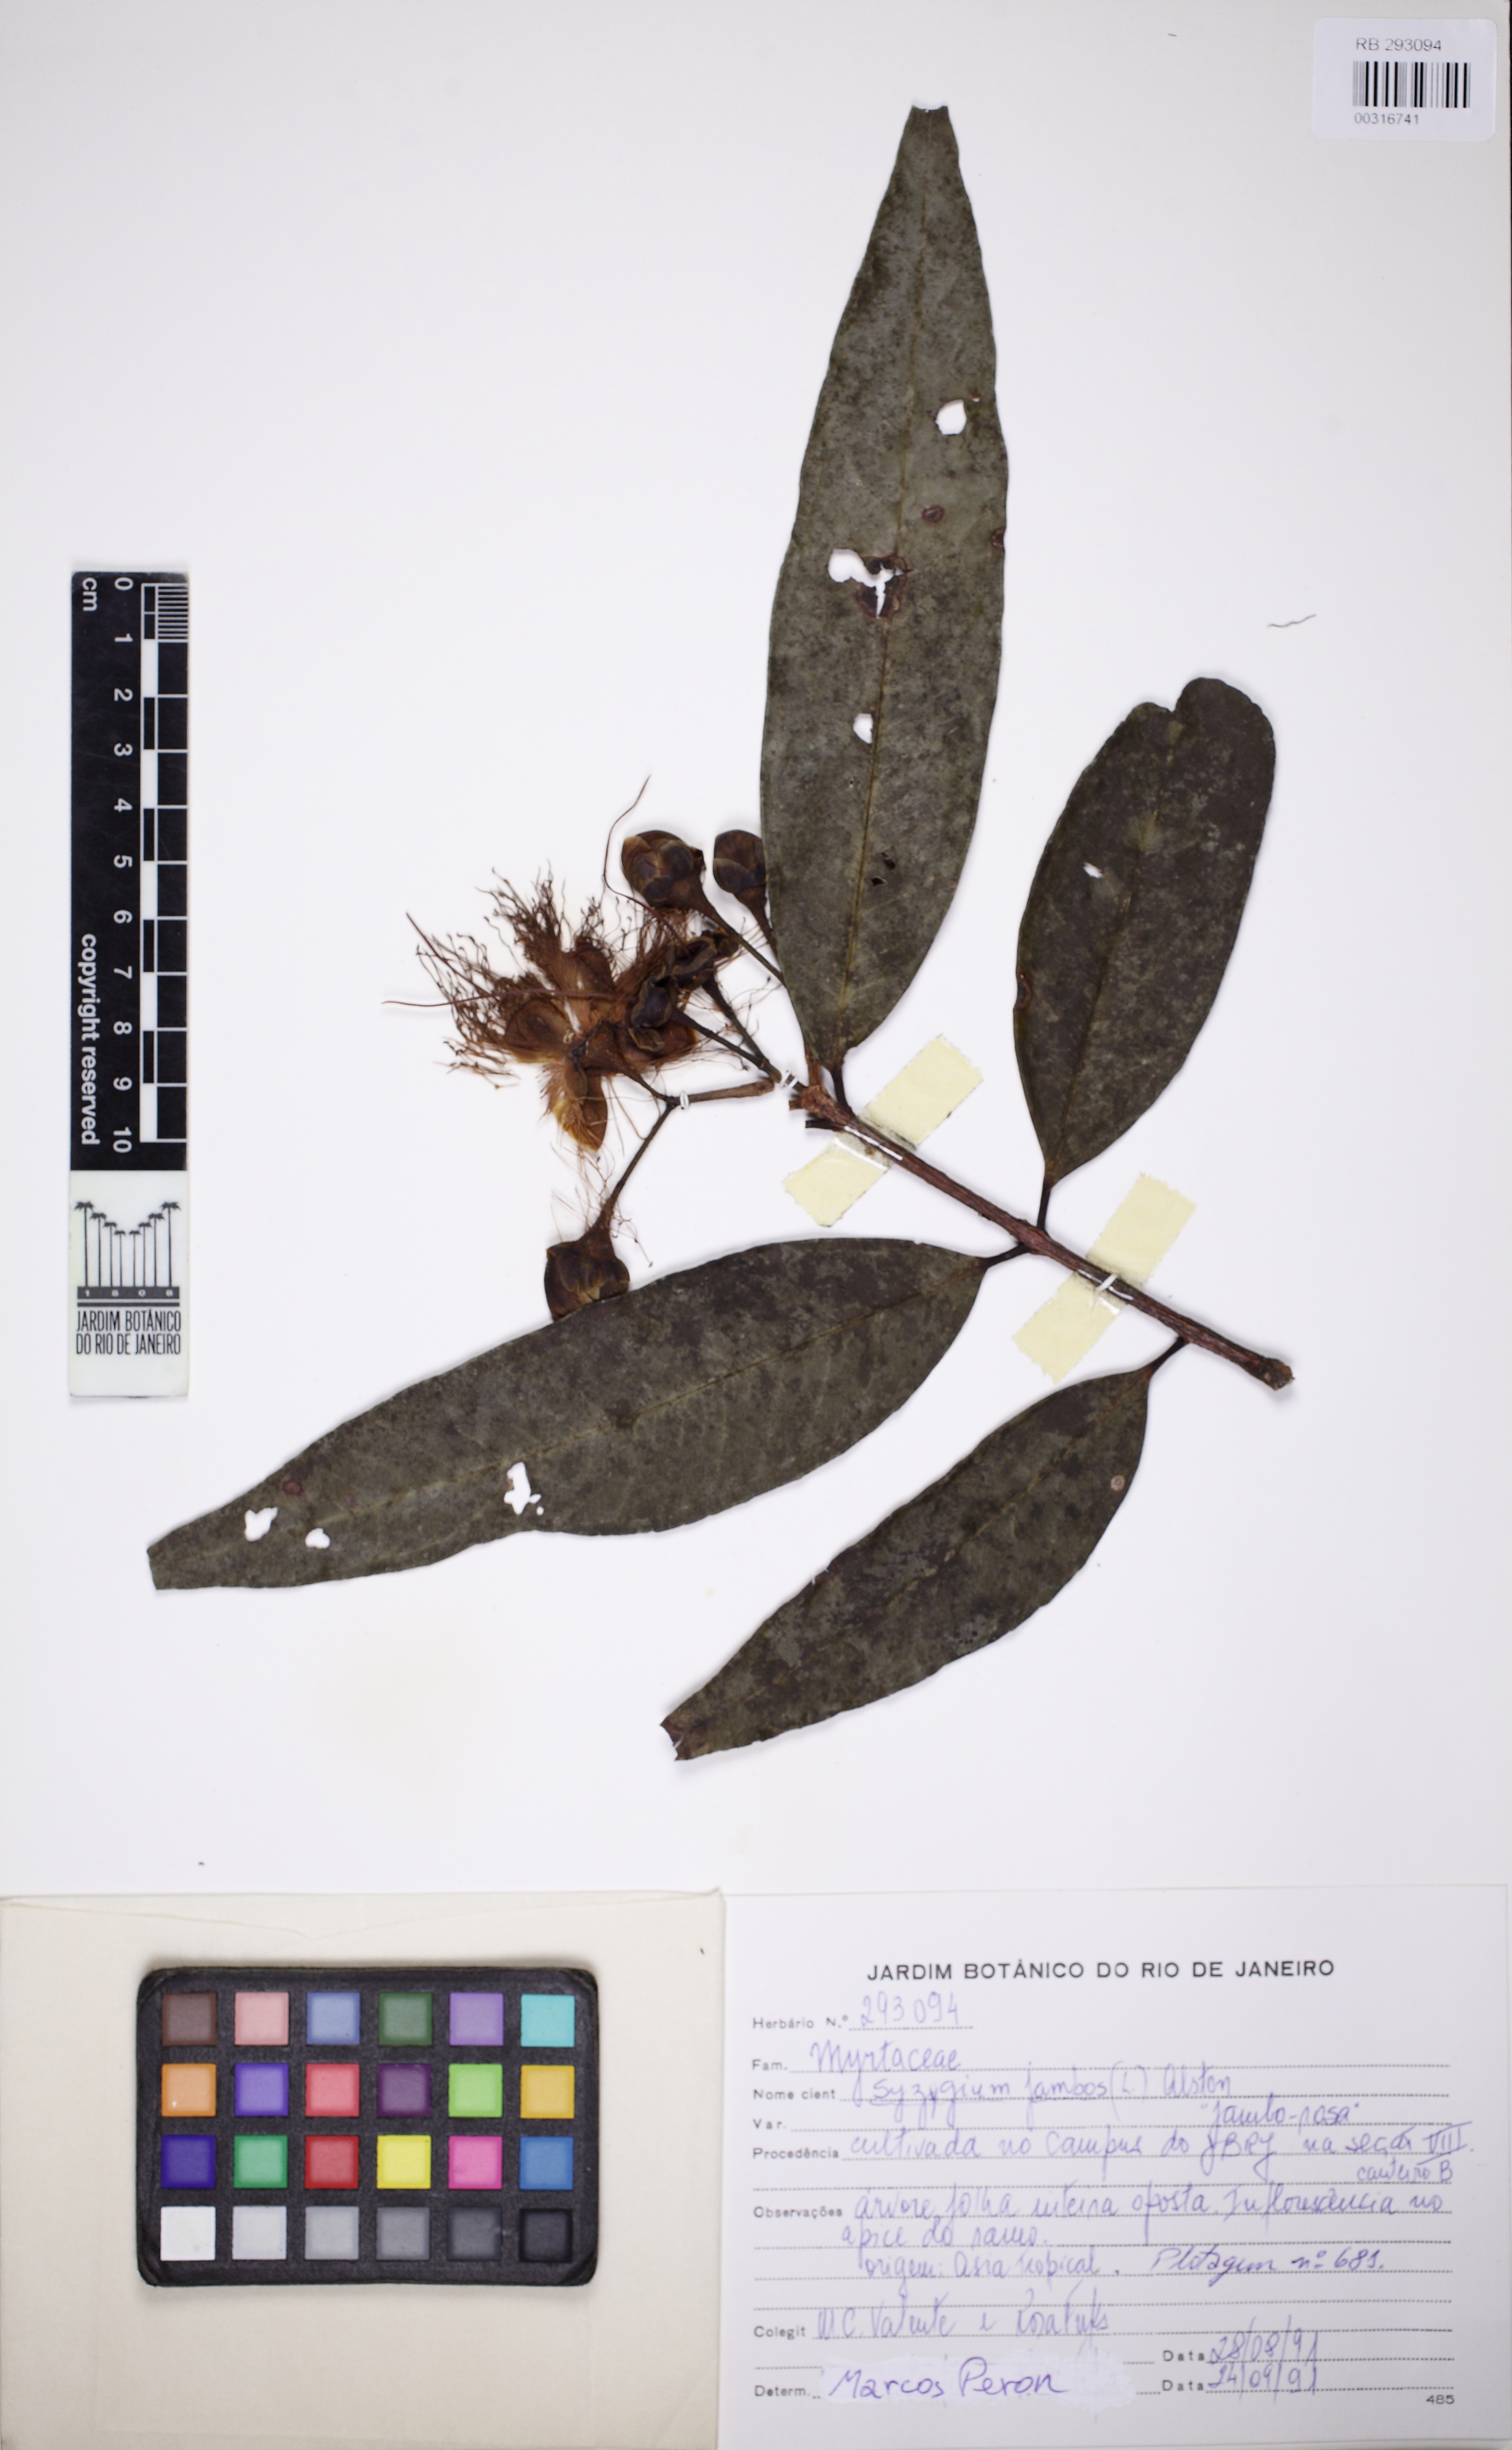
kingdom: Plantae
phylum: Tracheophyta
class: Magnoliopsida
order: Myrtales
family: Myrtaceae
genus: Syzygium
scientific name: Syzygium jambos
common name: Malabar plum
